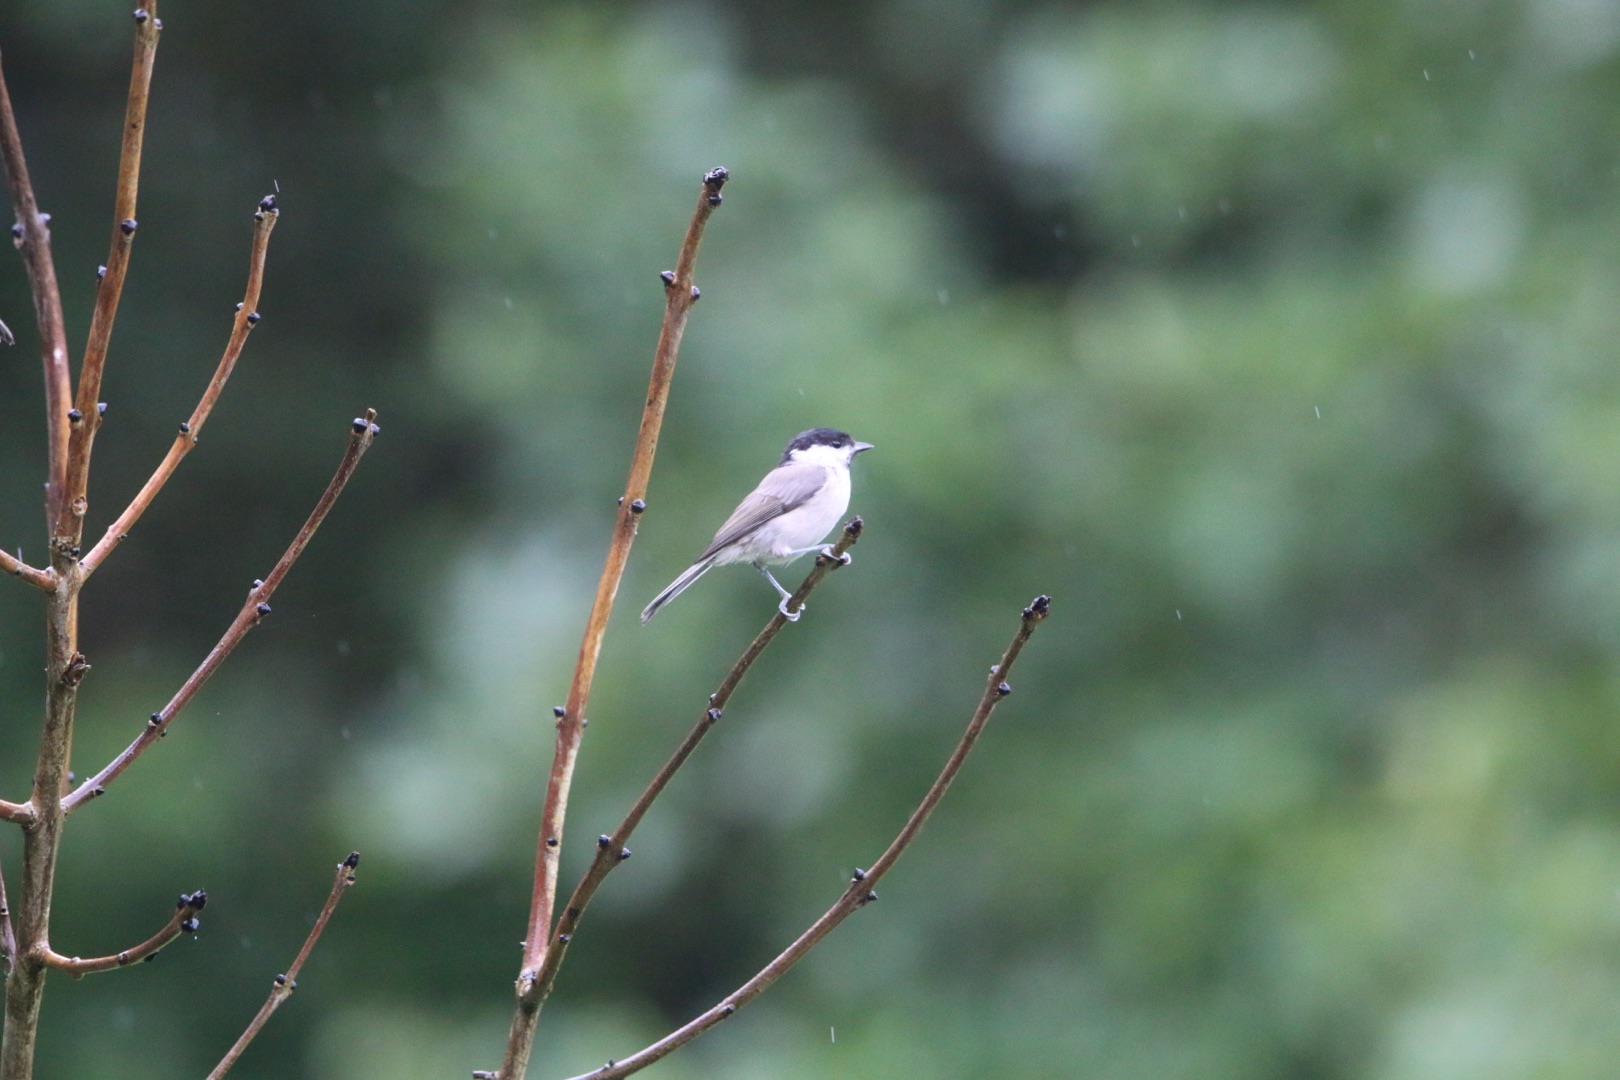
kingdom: Animalia
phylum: Chordata
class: Aves
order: Passeriformes
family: Paridae
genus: Poecile
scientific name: Poecile palustris
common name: Sumpmejse
